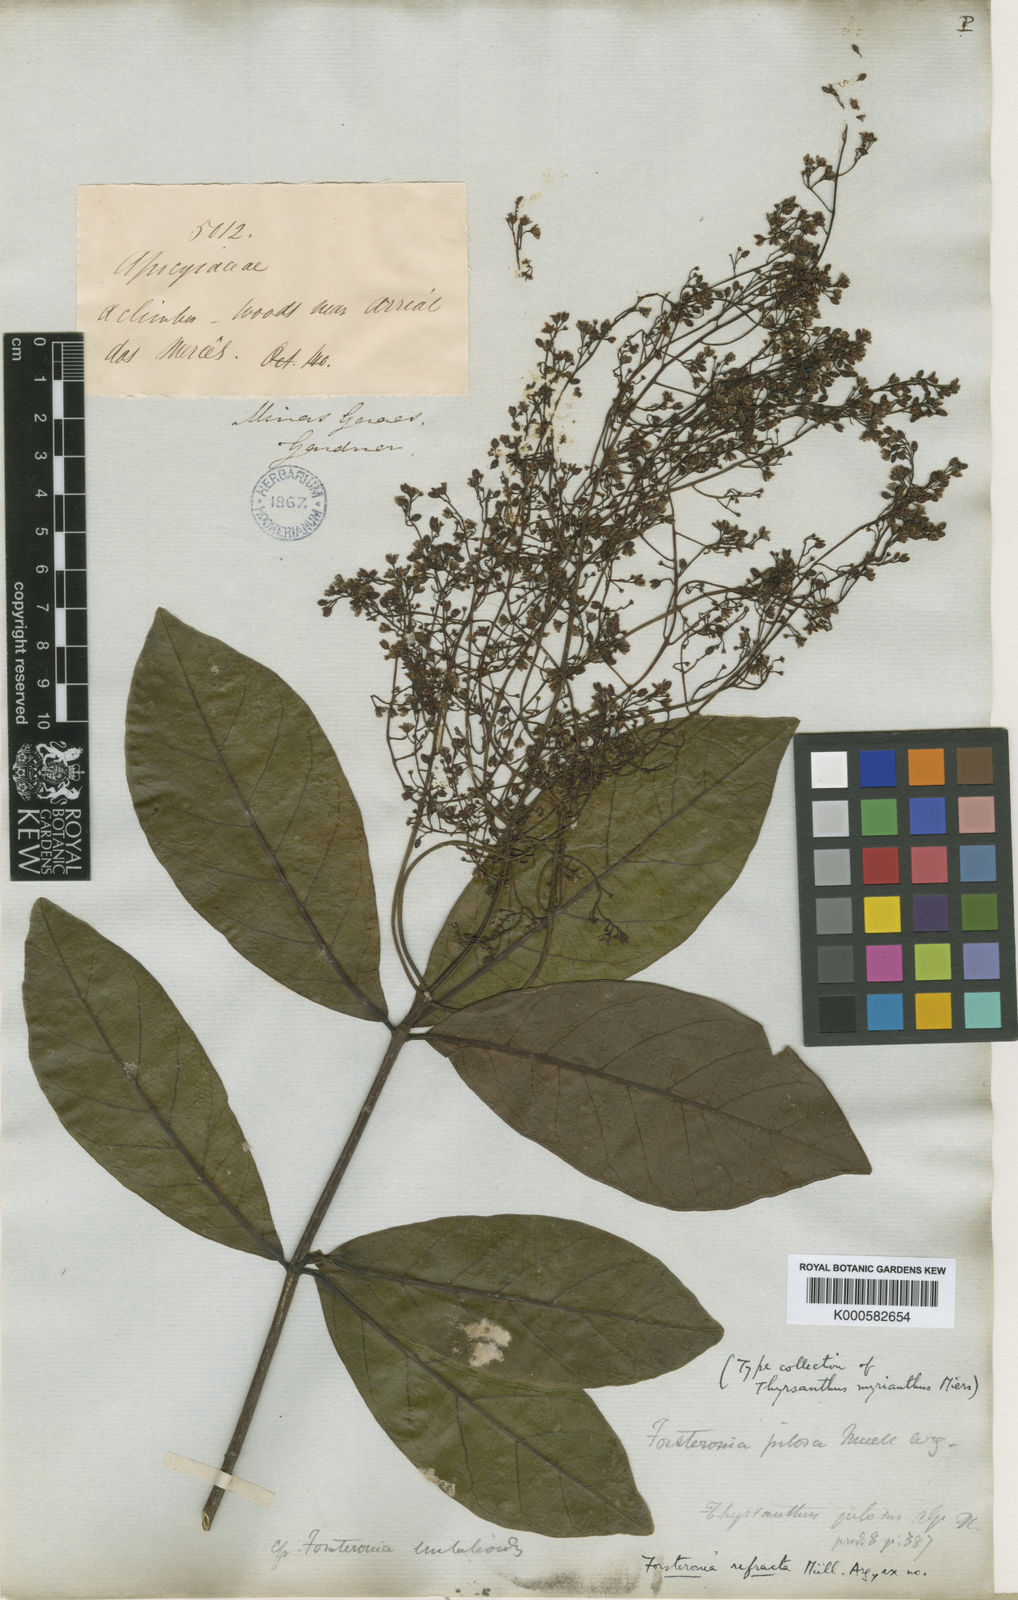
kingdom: Plantae
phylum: Tracheophyta
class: Magnoliopsida
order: Gentianales
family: Apocynaceae
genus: Forsteronia
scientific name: Forsteronia
